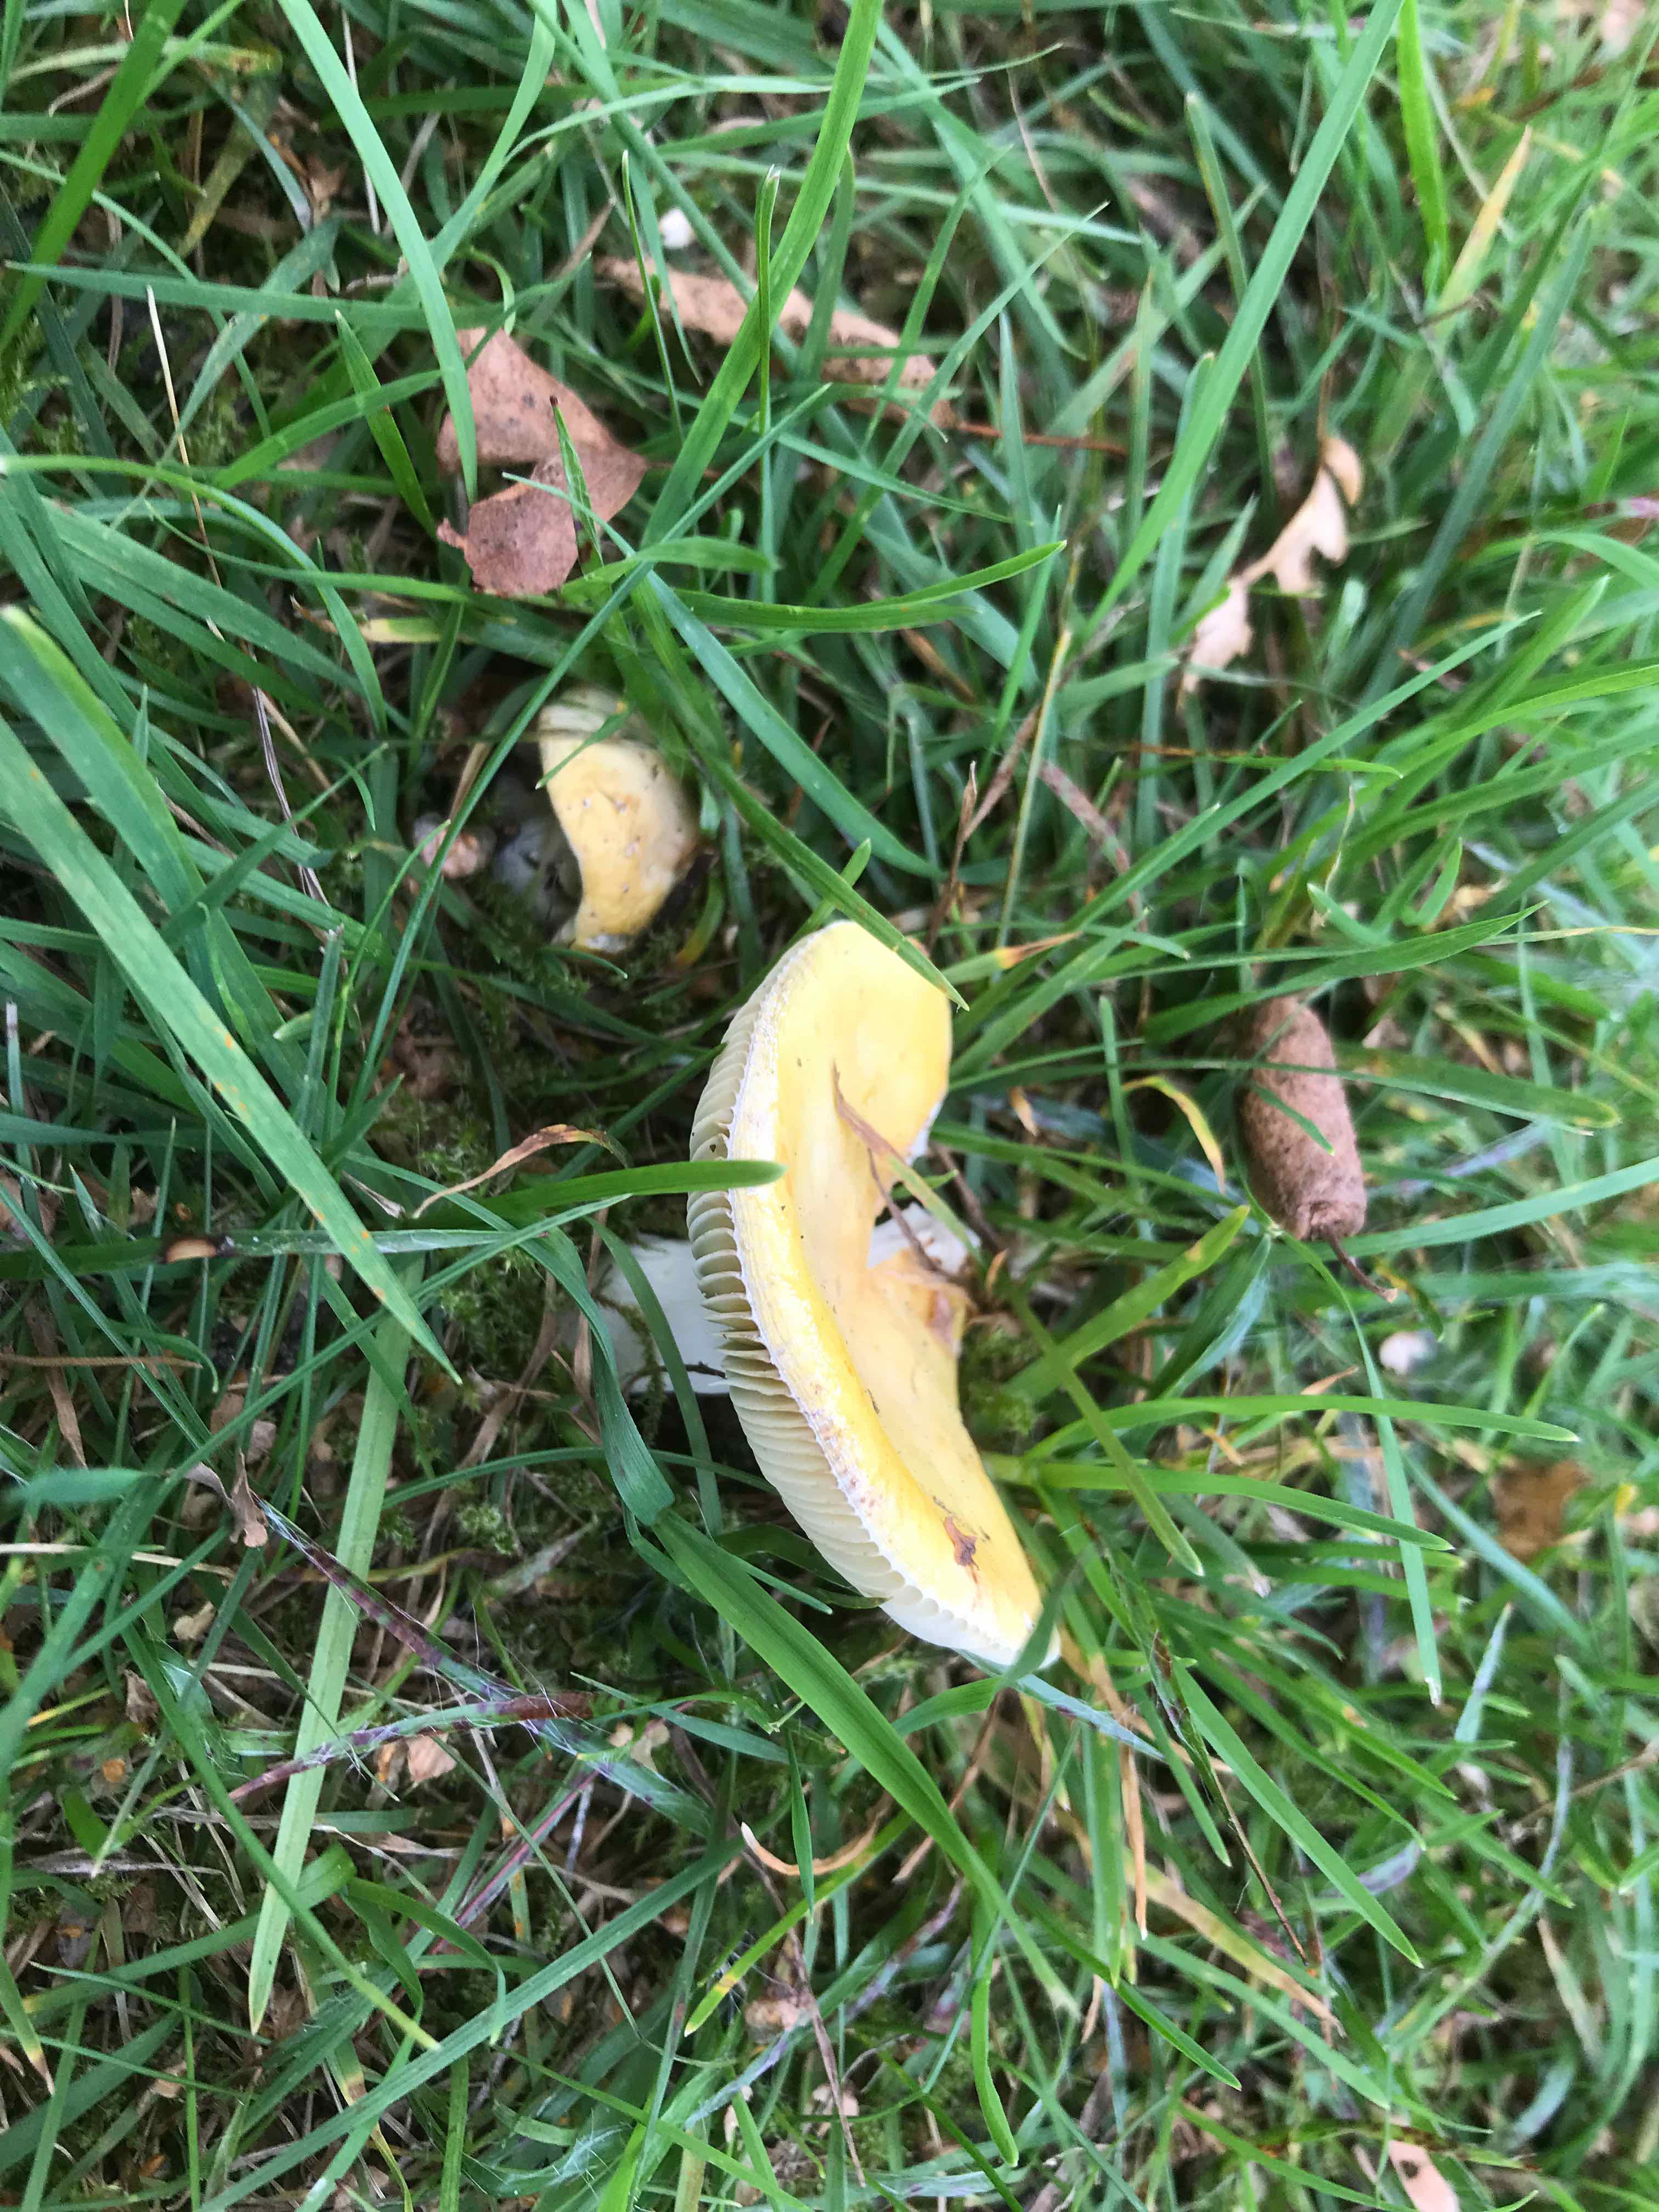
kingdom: Fungi
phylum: Basidiomycota
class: Agaricomycetes
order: Russulales
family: Russulaceae
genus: Russula
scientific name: Russula claroflava
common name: birke-skørhat
